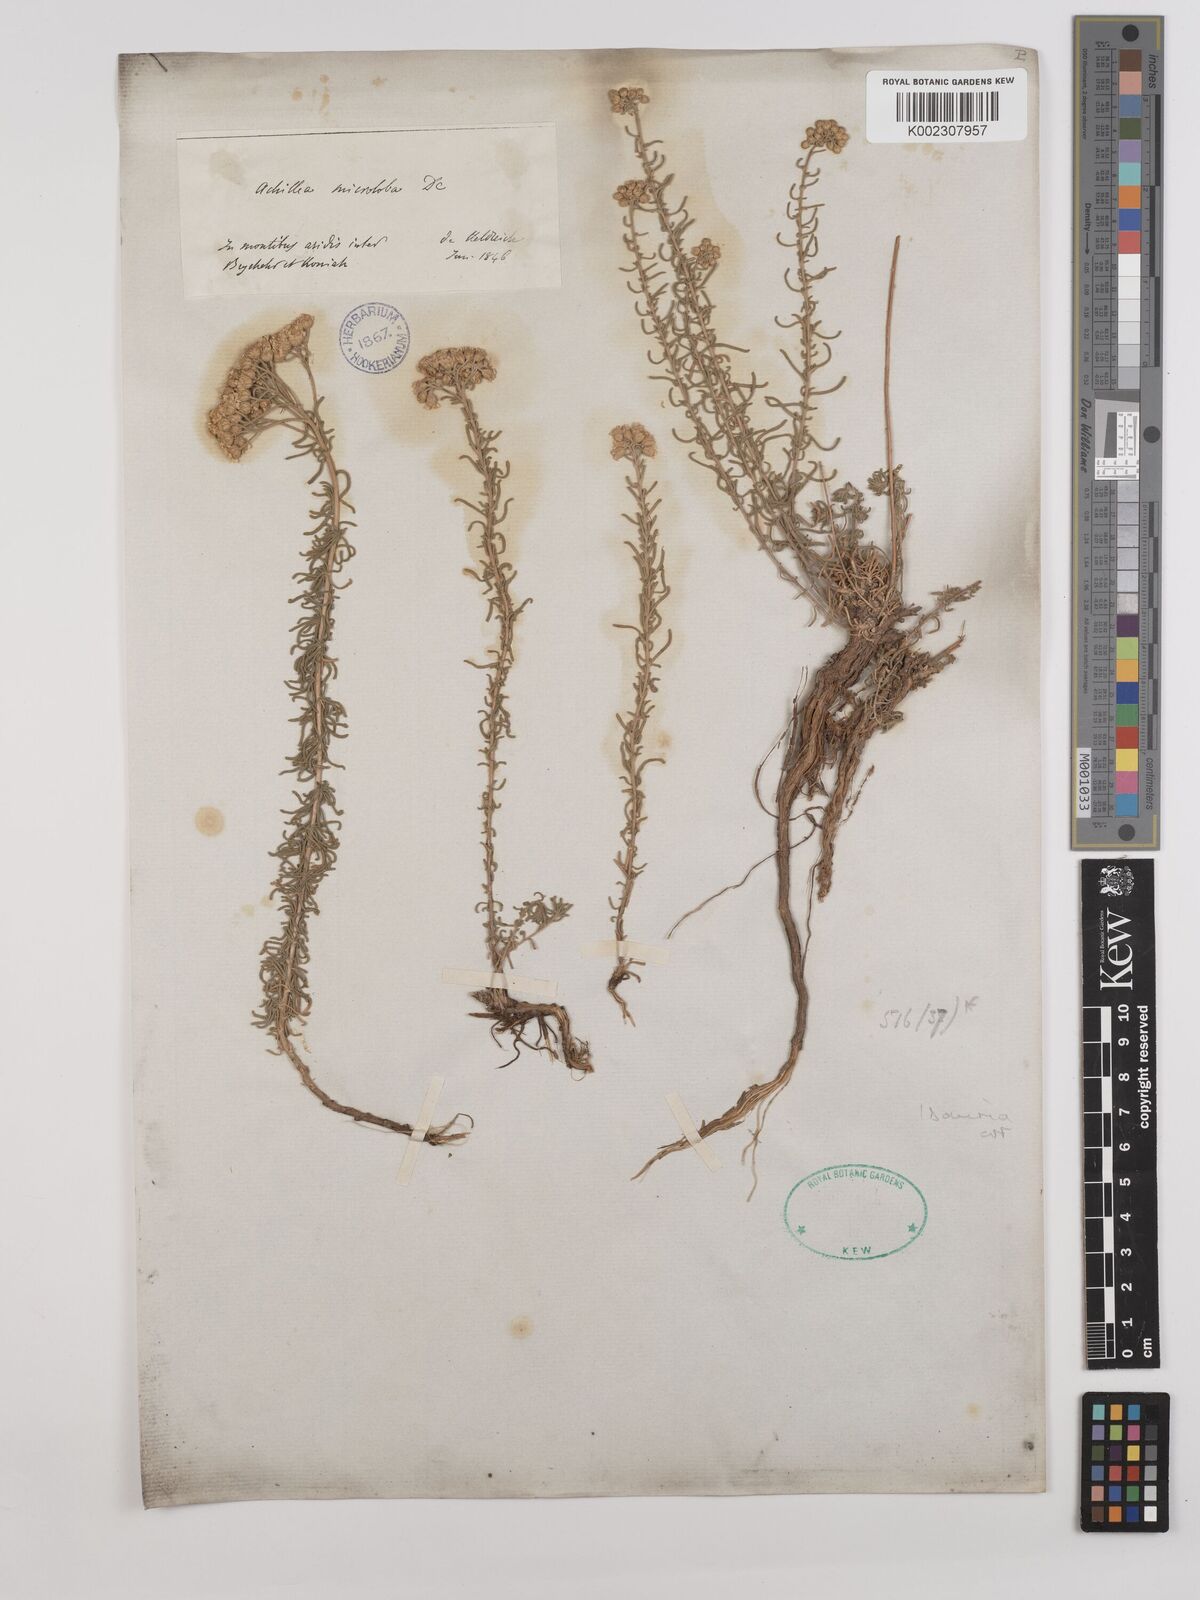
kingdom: Plantae
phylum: Tracheophyta
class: Magnoliopsida
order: Asterales
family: Asteraceae
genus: Achillea
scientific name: Achillea wilhelmsii
